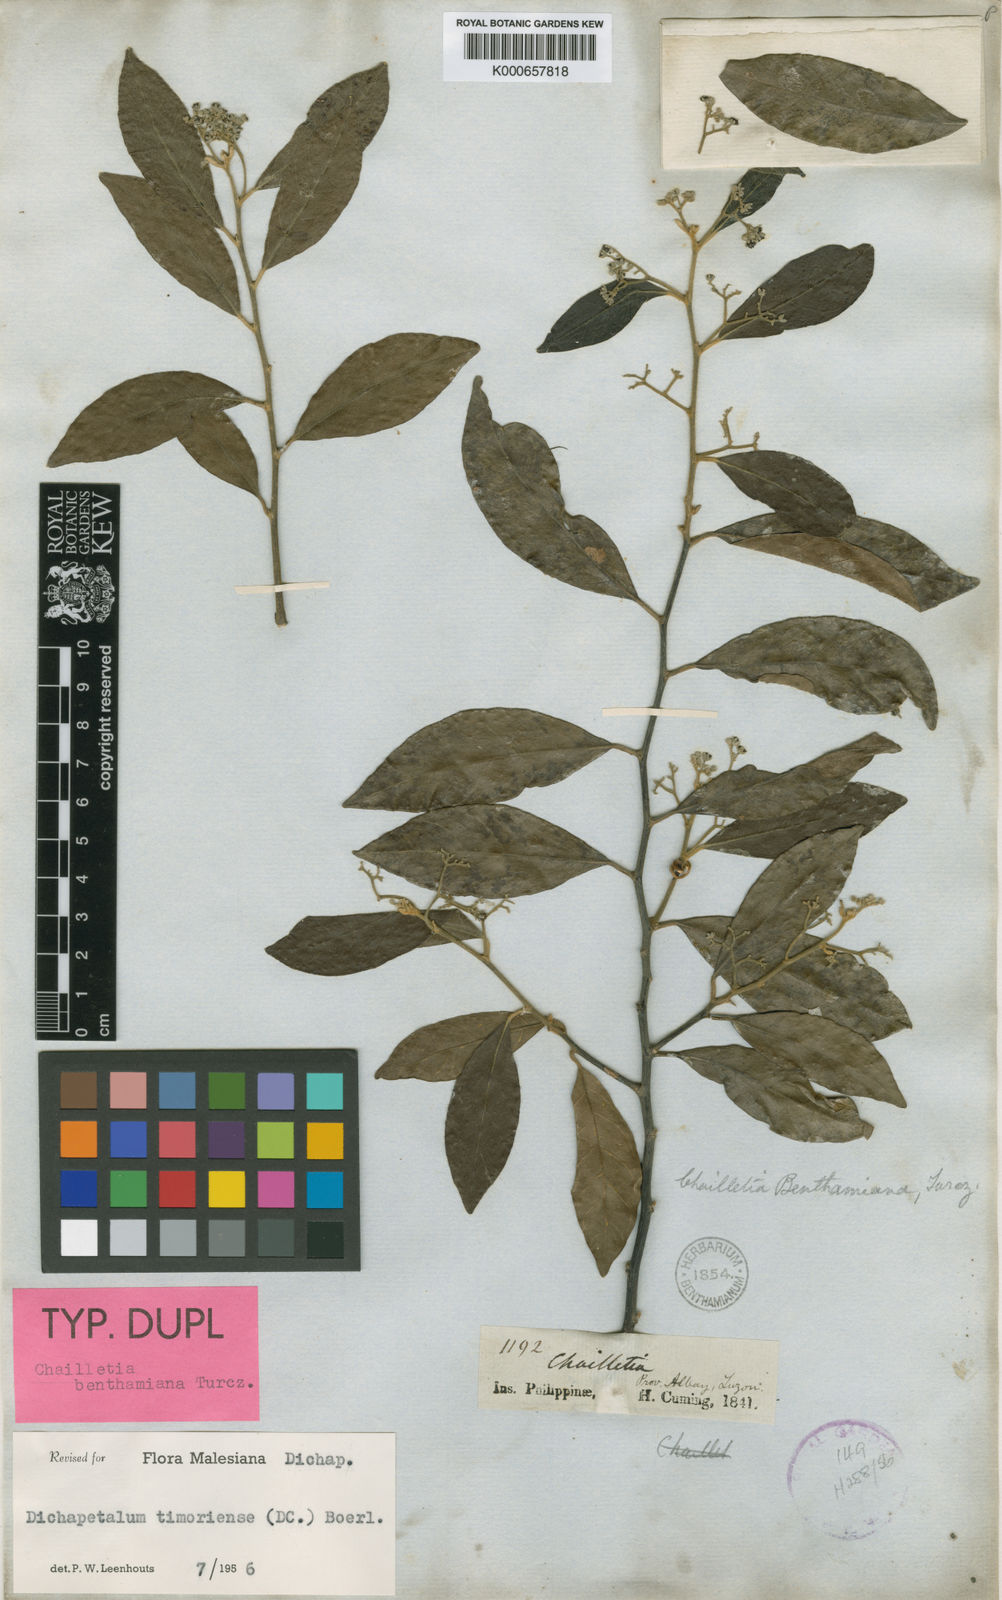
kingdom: Plantae
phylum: Tracheophyta
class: Magnoliopsida
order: Malpighiales
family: Dichapetalaceae
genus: Dichapetalum
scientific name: Dichapetalum timoriense
